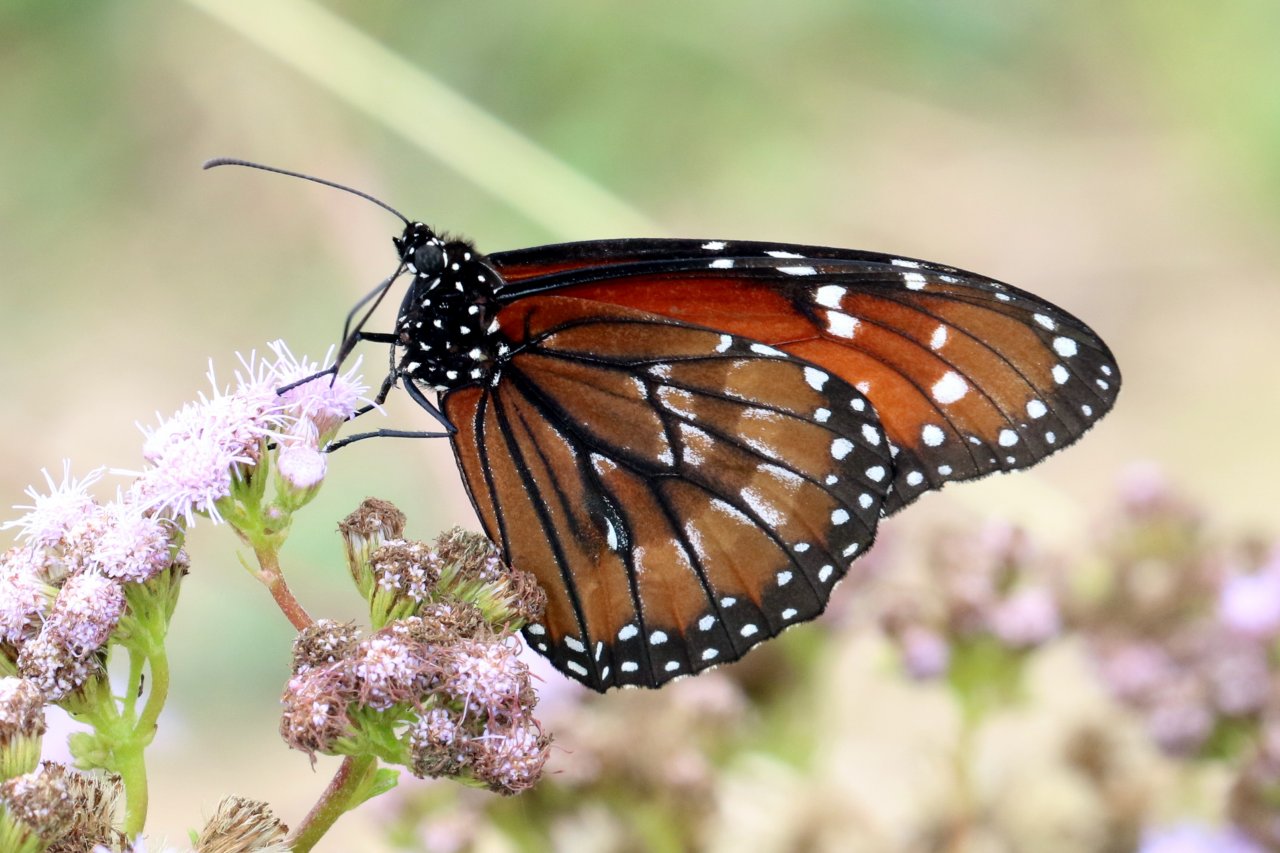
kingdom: Animalia
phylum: Arthropoda
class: Insecta
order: Lepidoptera
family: Nymphalidae
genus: Danaus
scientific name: Danaus eresimus
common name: Soldier
